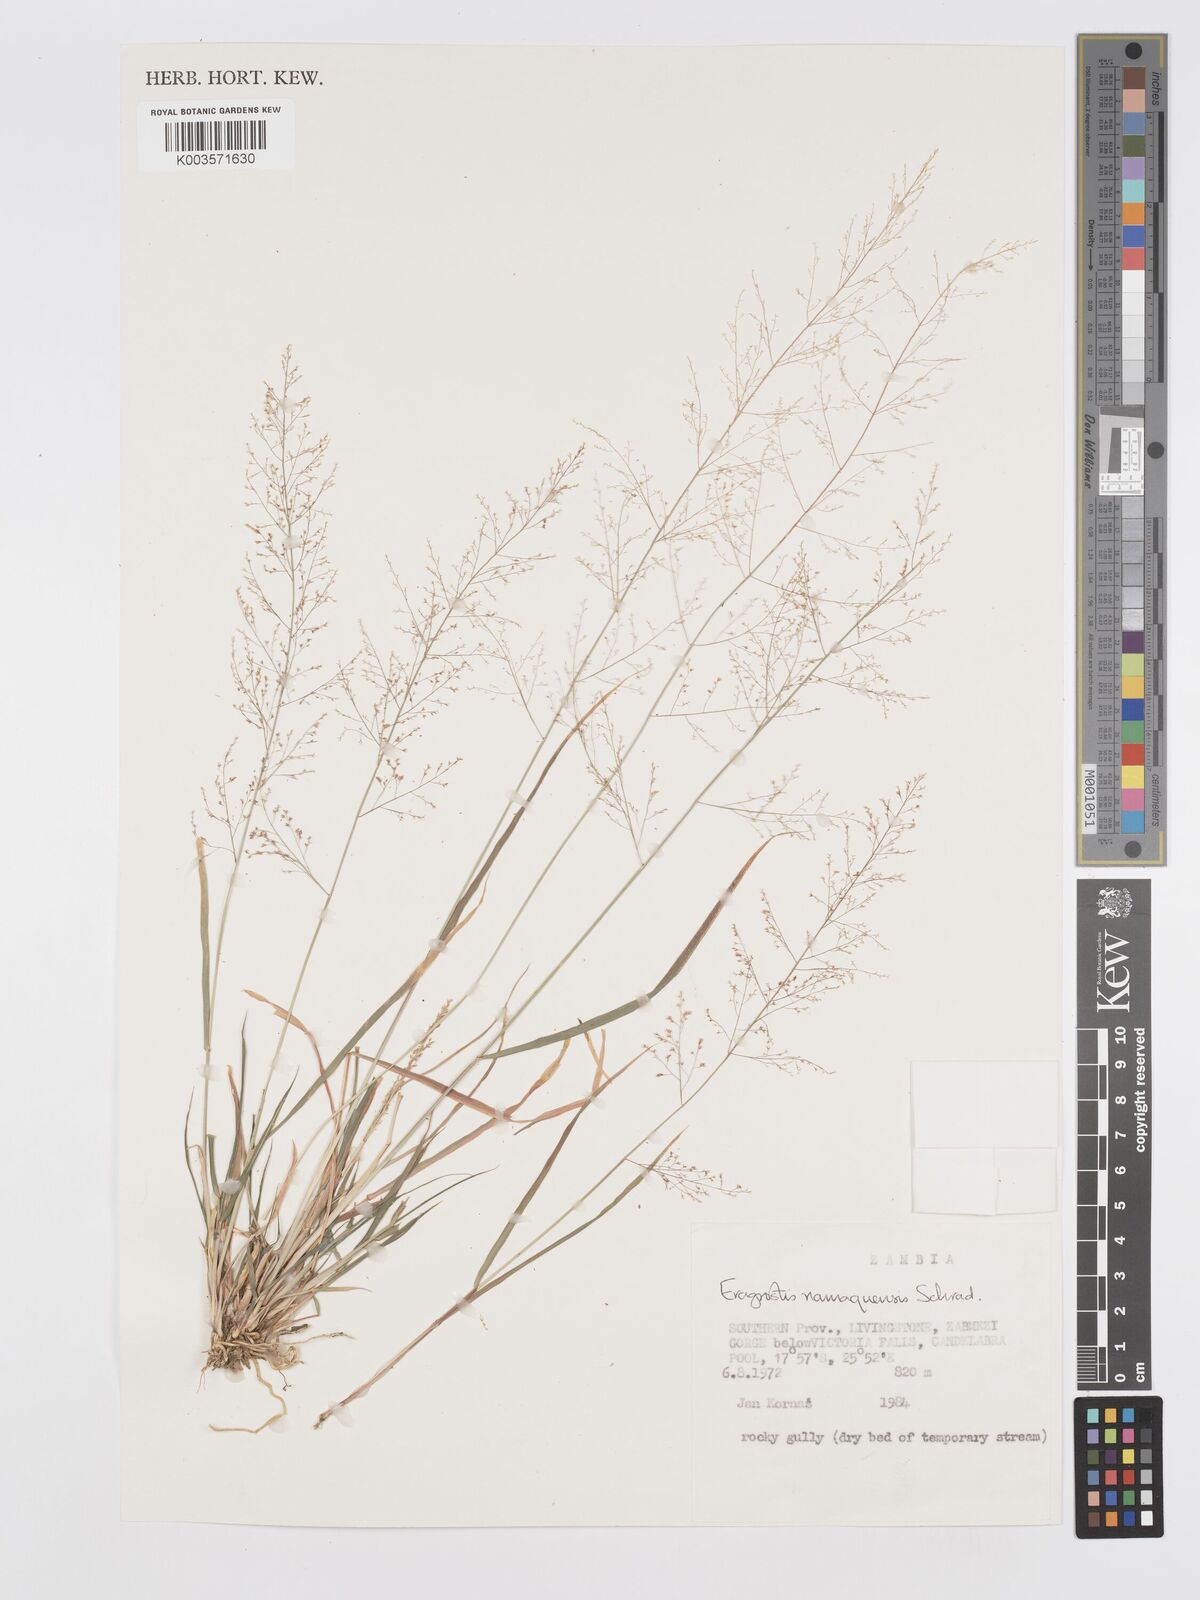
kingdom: Plantae
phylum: Tracheophyta
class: Liliopsida
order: Poales
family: Poaceae
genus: Eragrostis
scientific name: Eragrostis japonica
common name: Pond lovegrass
